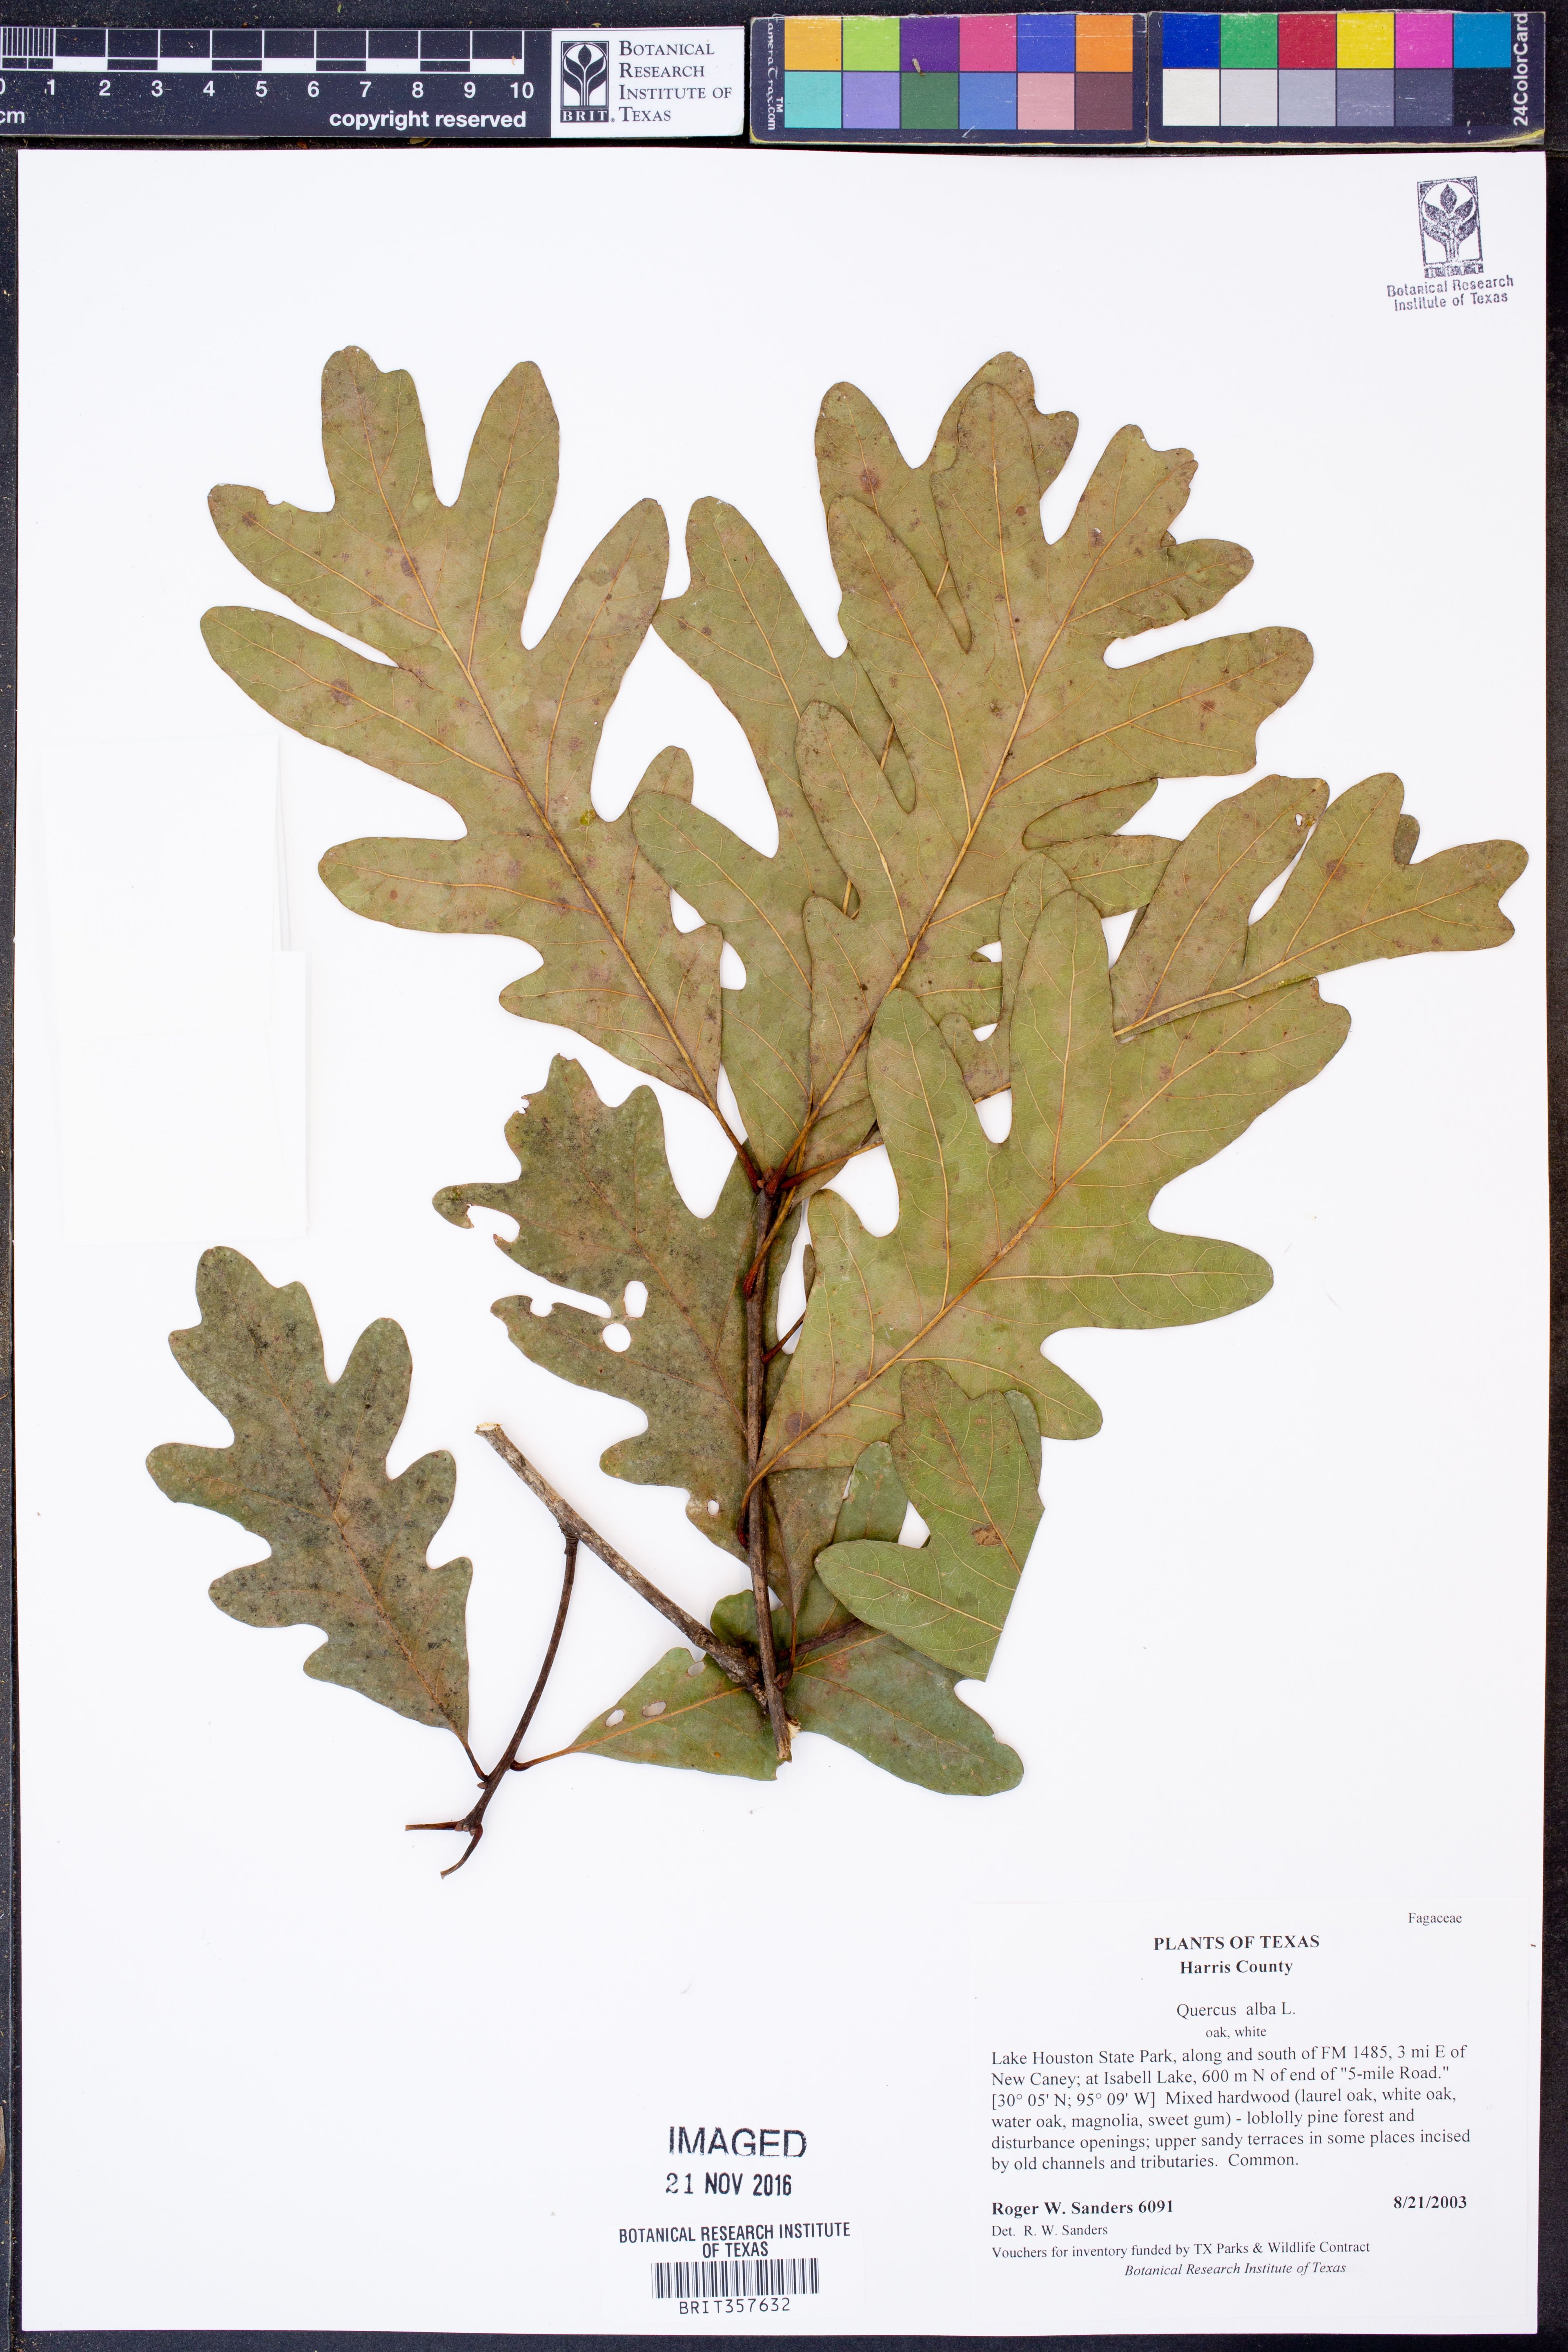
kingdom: Plantae
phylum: Tracheophyta
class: Magnoliopsida
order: Fagales
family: Fagaceae
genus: Quercus
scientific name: Quercus alba
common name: White oak
